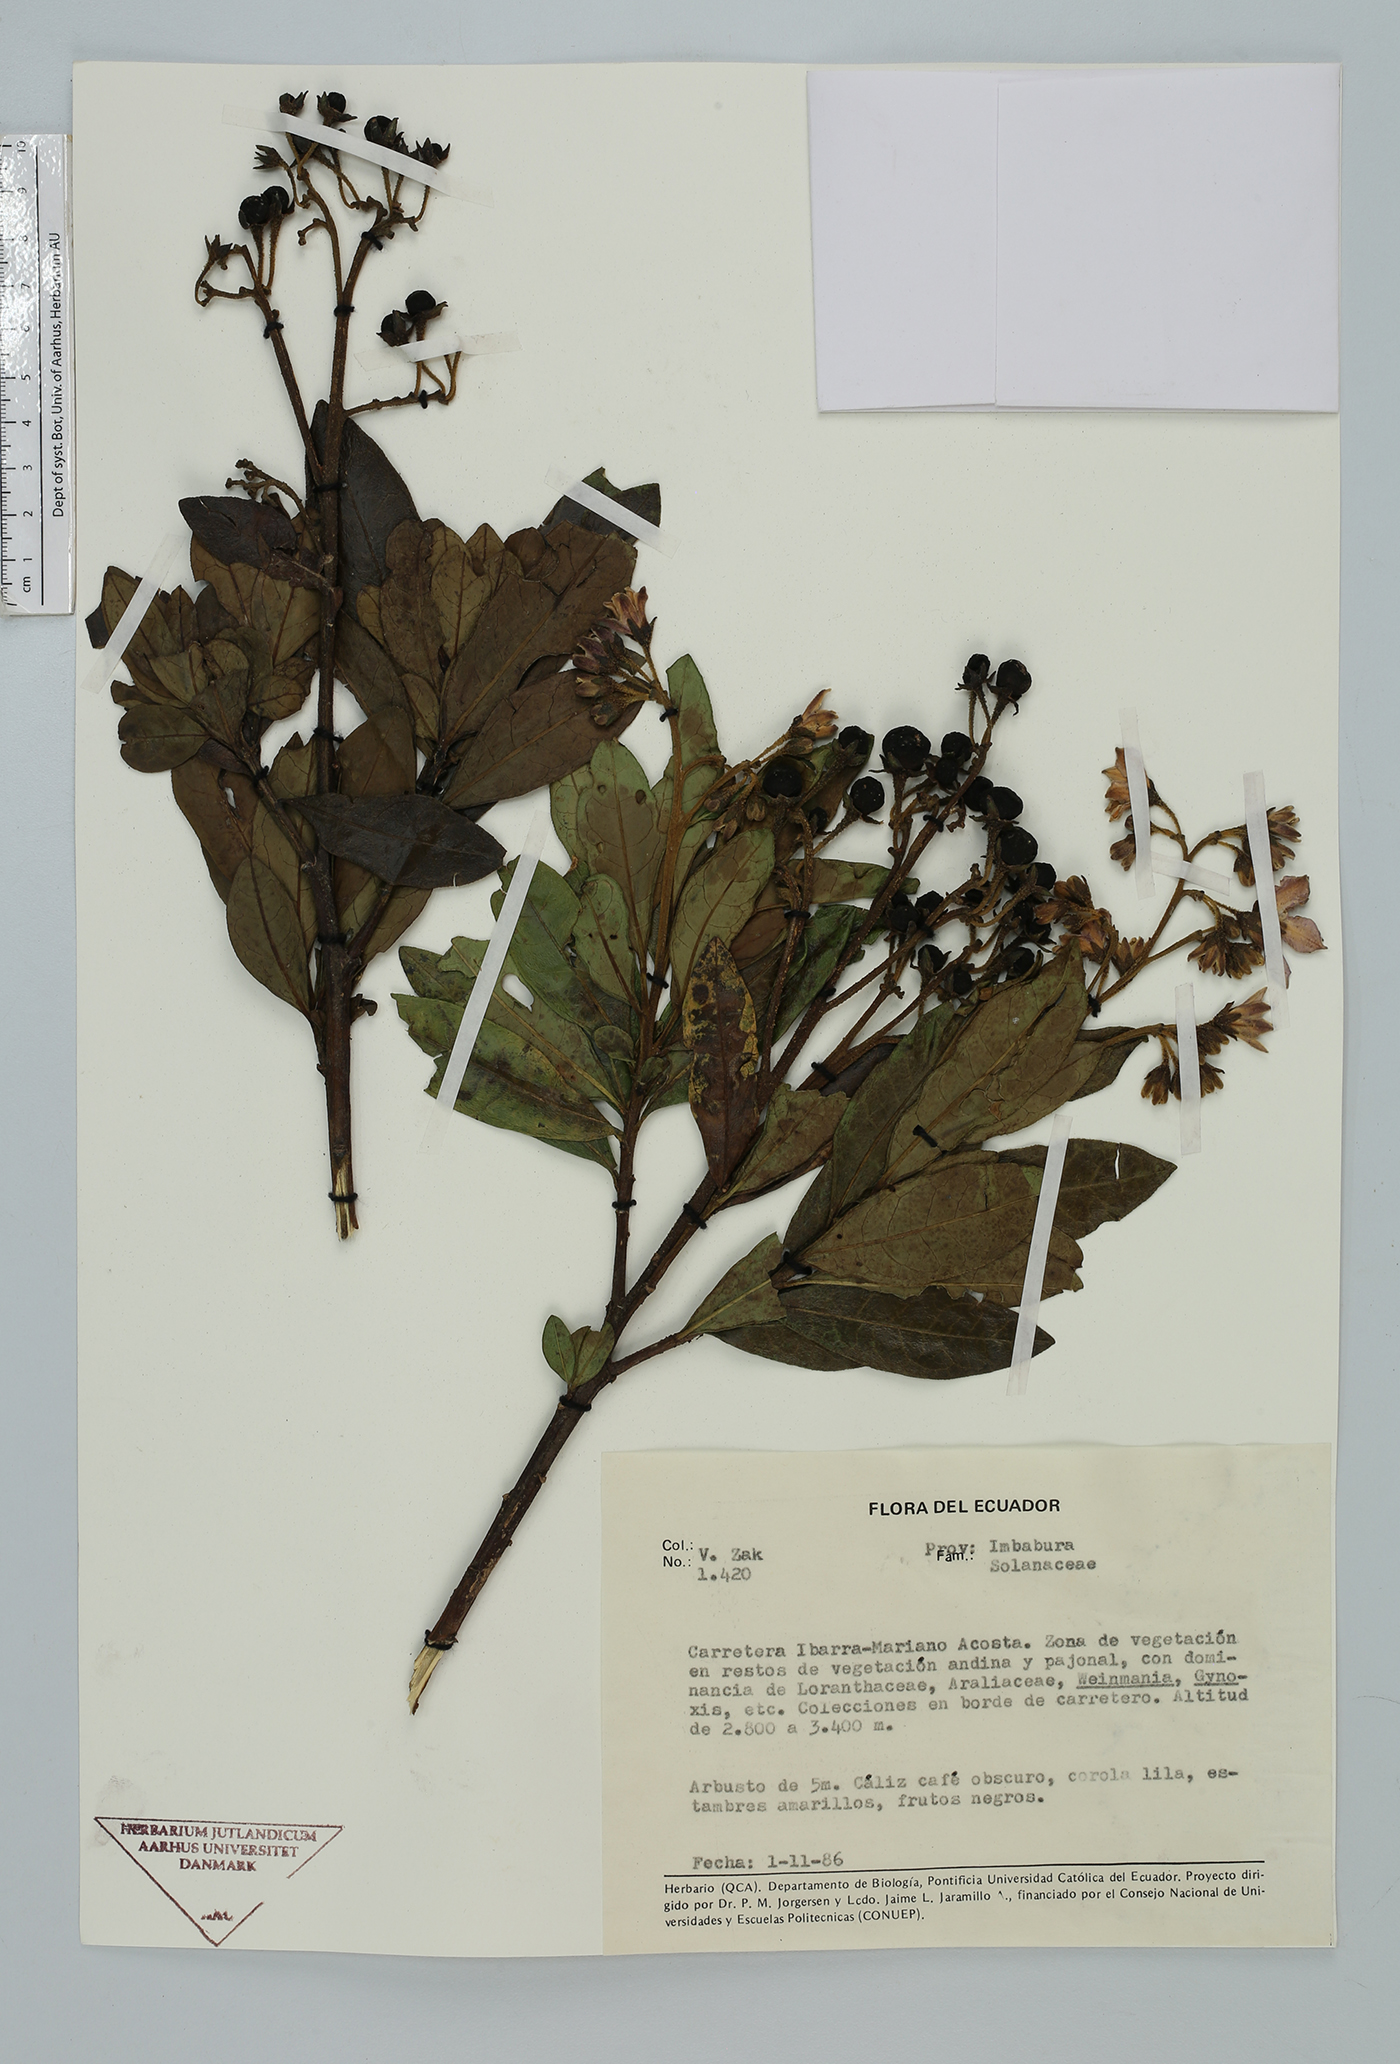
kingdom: Plantae
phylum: Tracheophyta
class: Magnoliopsida
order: Solanales
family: Solanaceae
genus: Solanum
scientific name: Solanum
